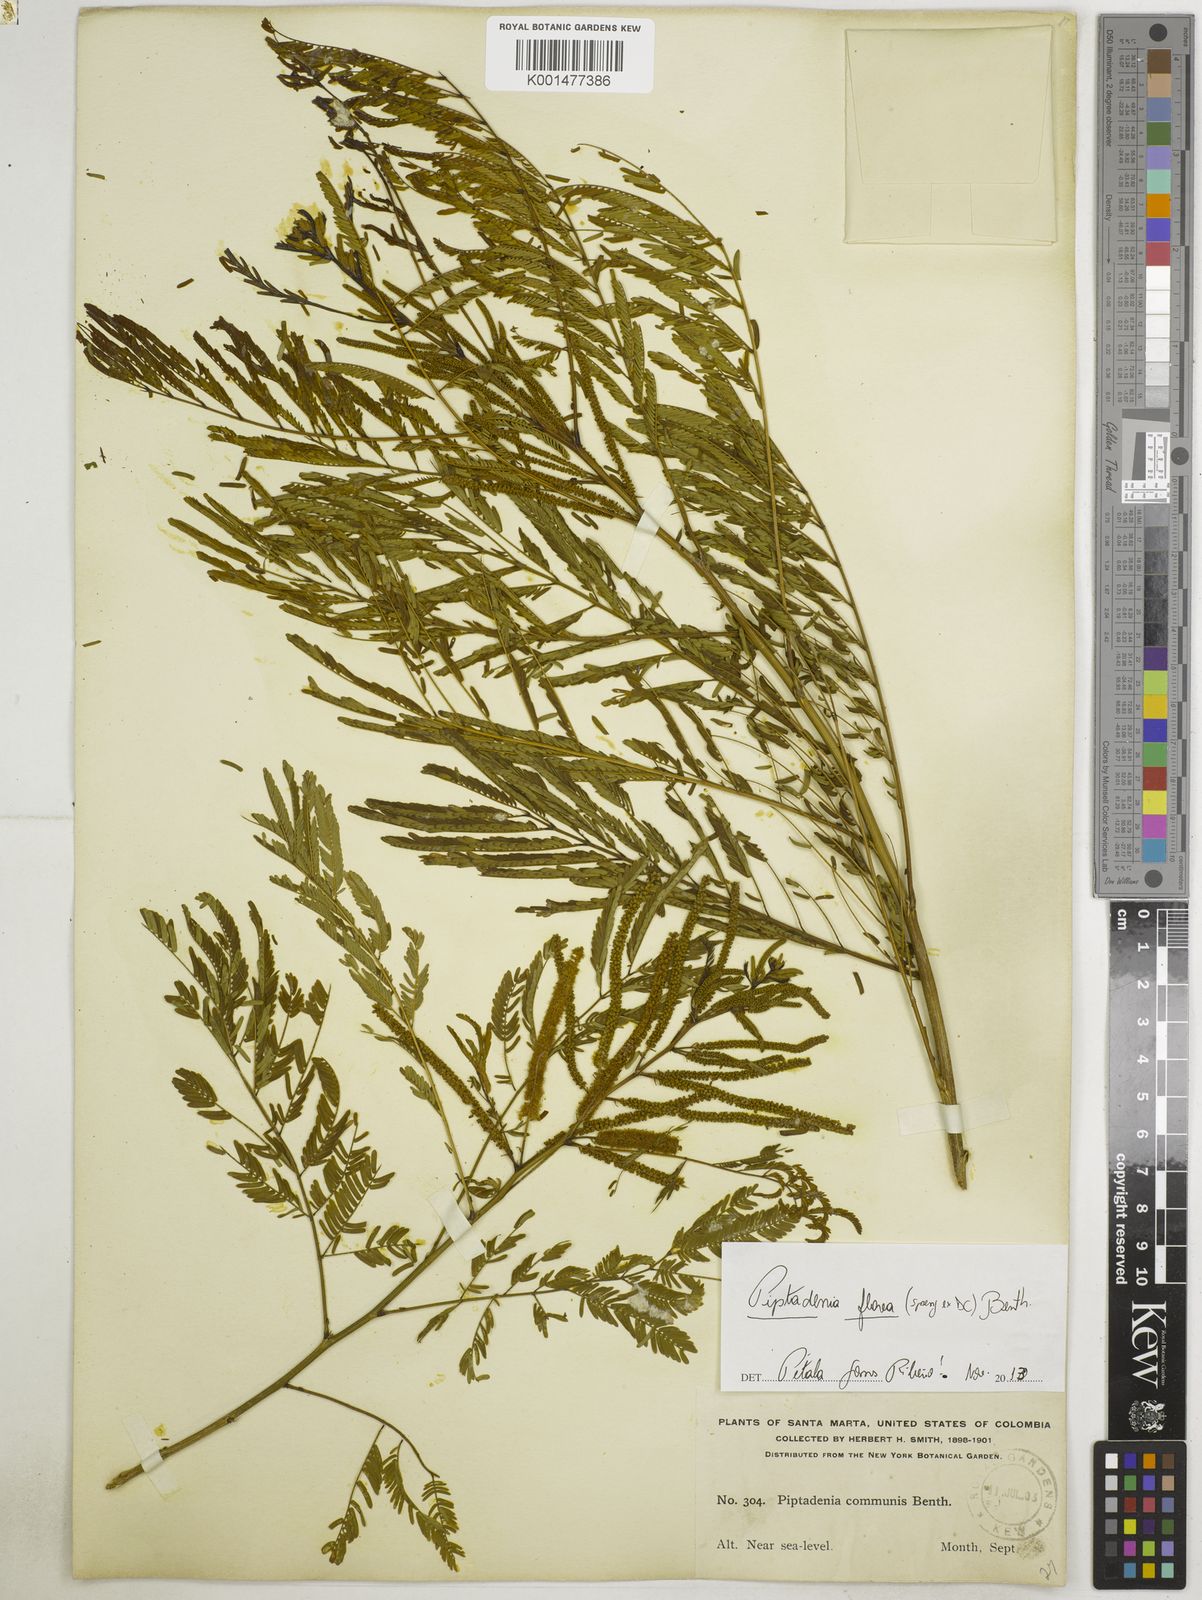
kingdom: Plantae
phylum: Tracheophyta
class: Magnoliopsida
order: Fabales
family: Fabaceae
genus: Piptadenia
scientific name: Piptadenia retusa
